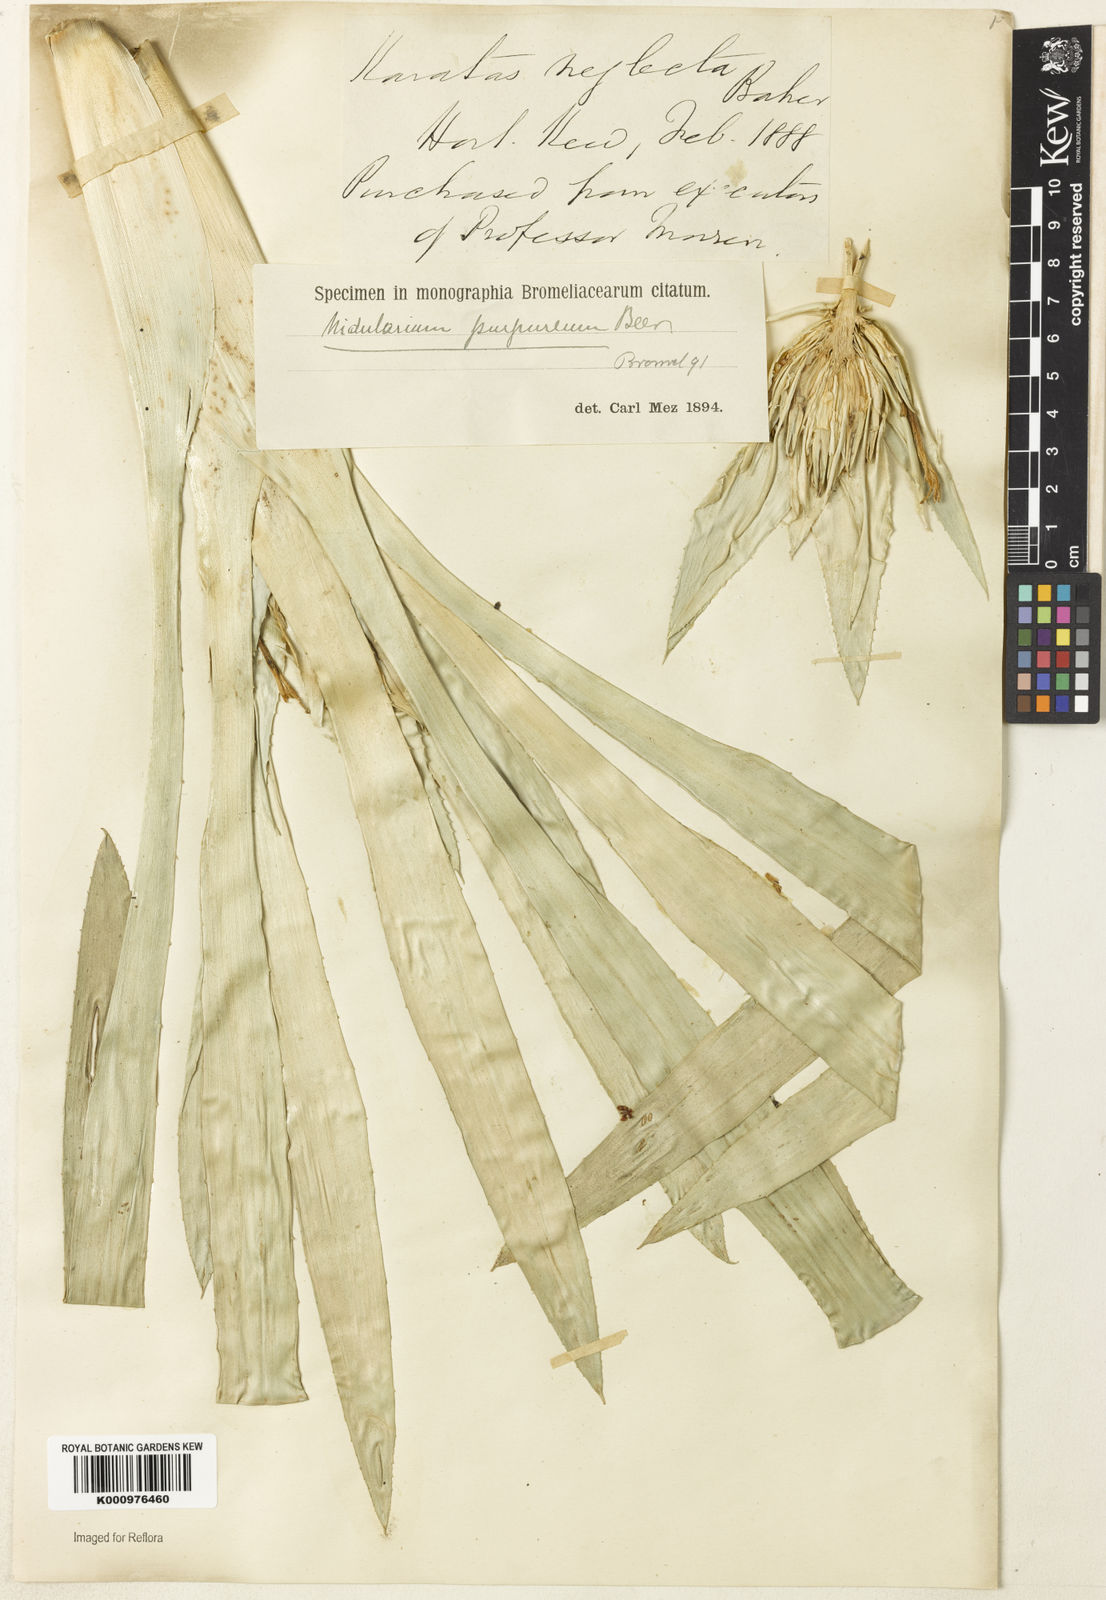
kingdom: Plantae
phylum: Tracheophyta
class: Liliopsida
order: Poales
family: Bromeliaceae
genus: Nidularium
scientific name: Nidularium purpureum
